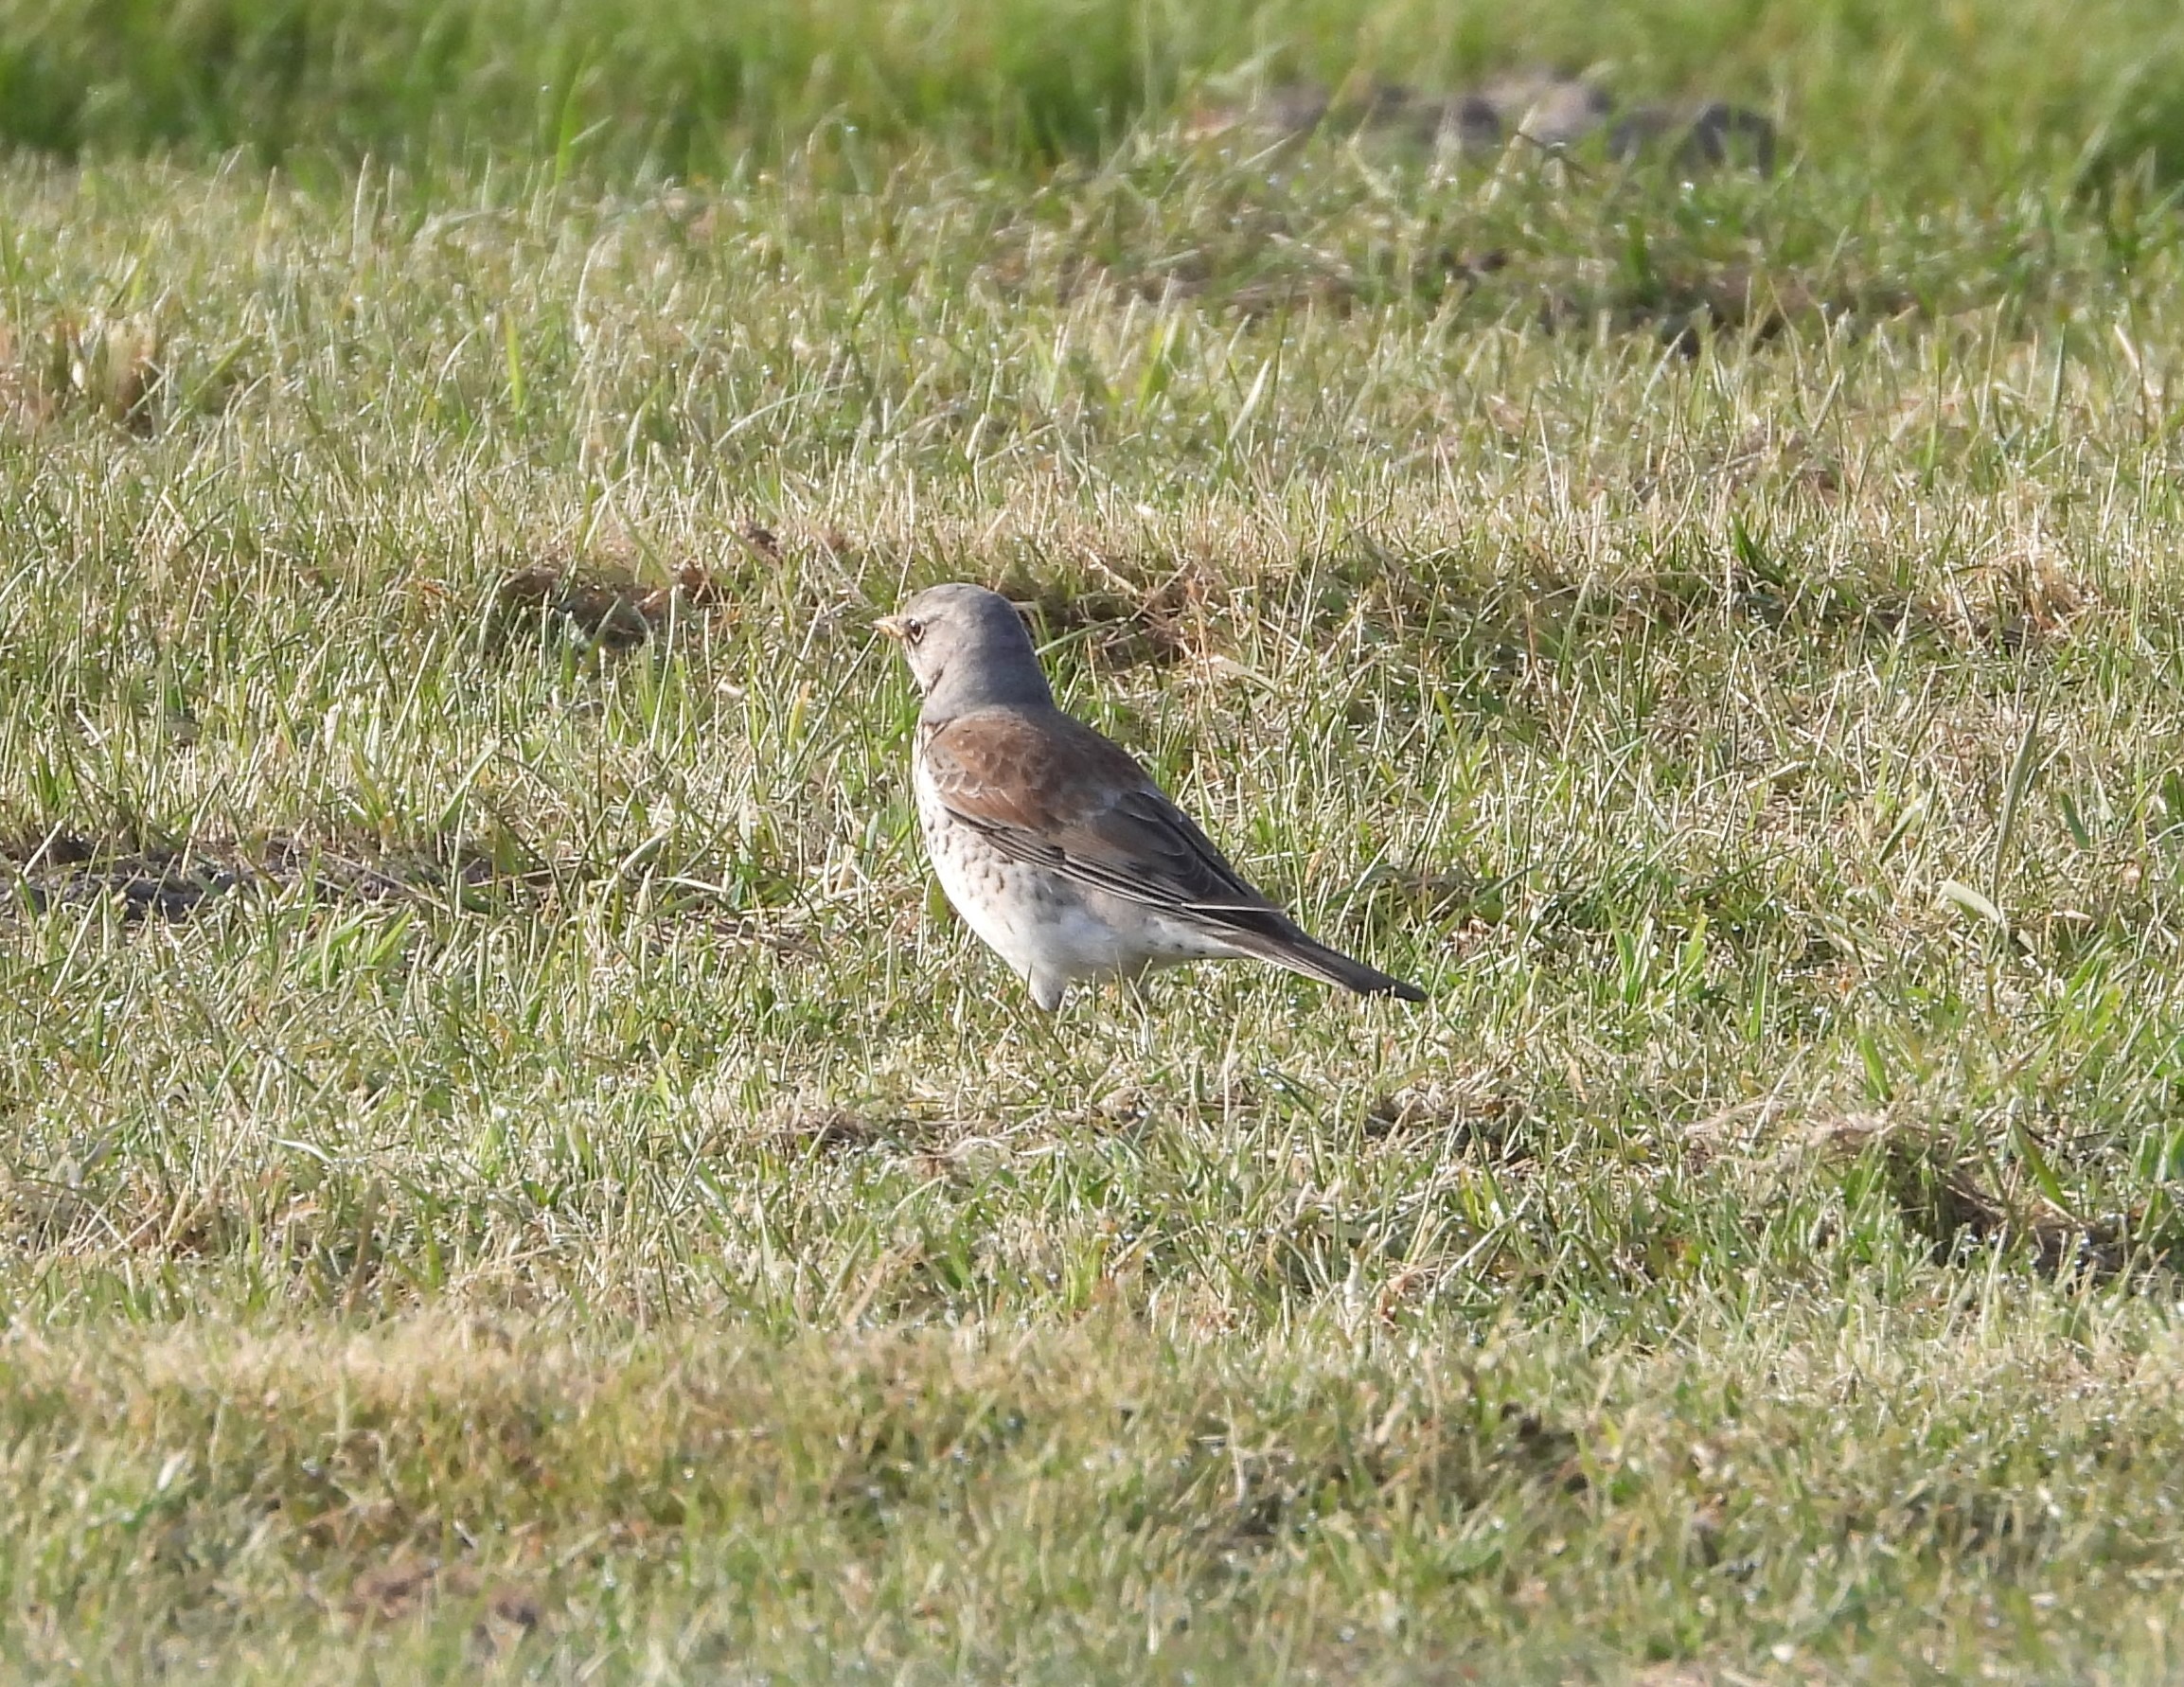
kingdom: Animalia
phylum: Chordata
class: Aves
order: Passeriformes
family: Turdidae
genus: Turdus
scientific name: Turdus pilaris
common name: Sjagger
